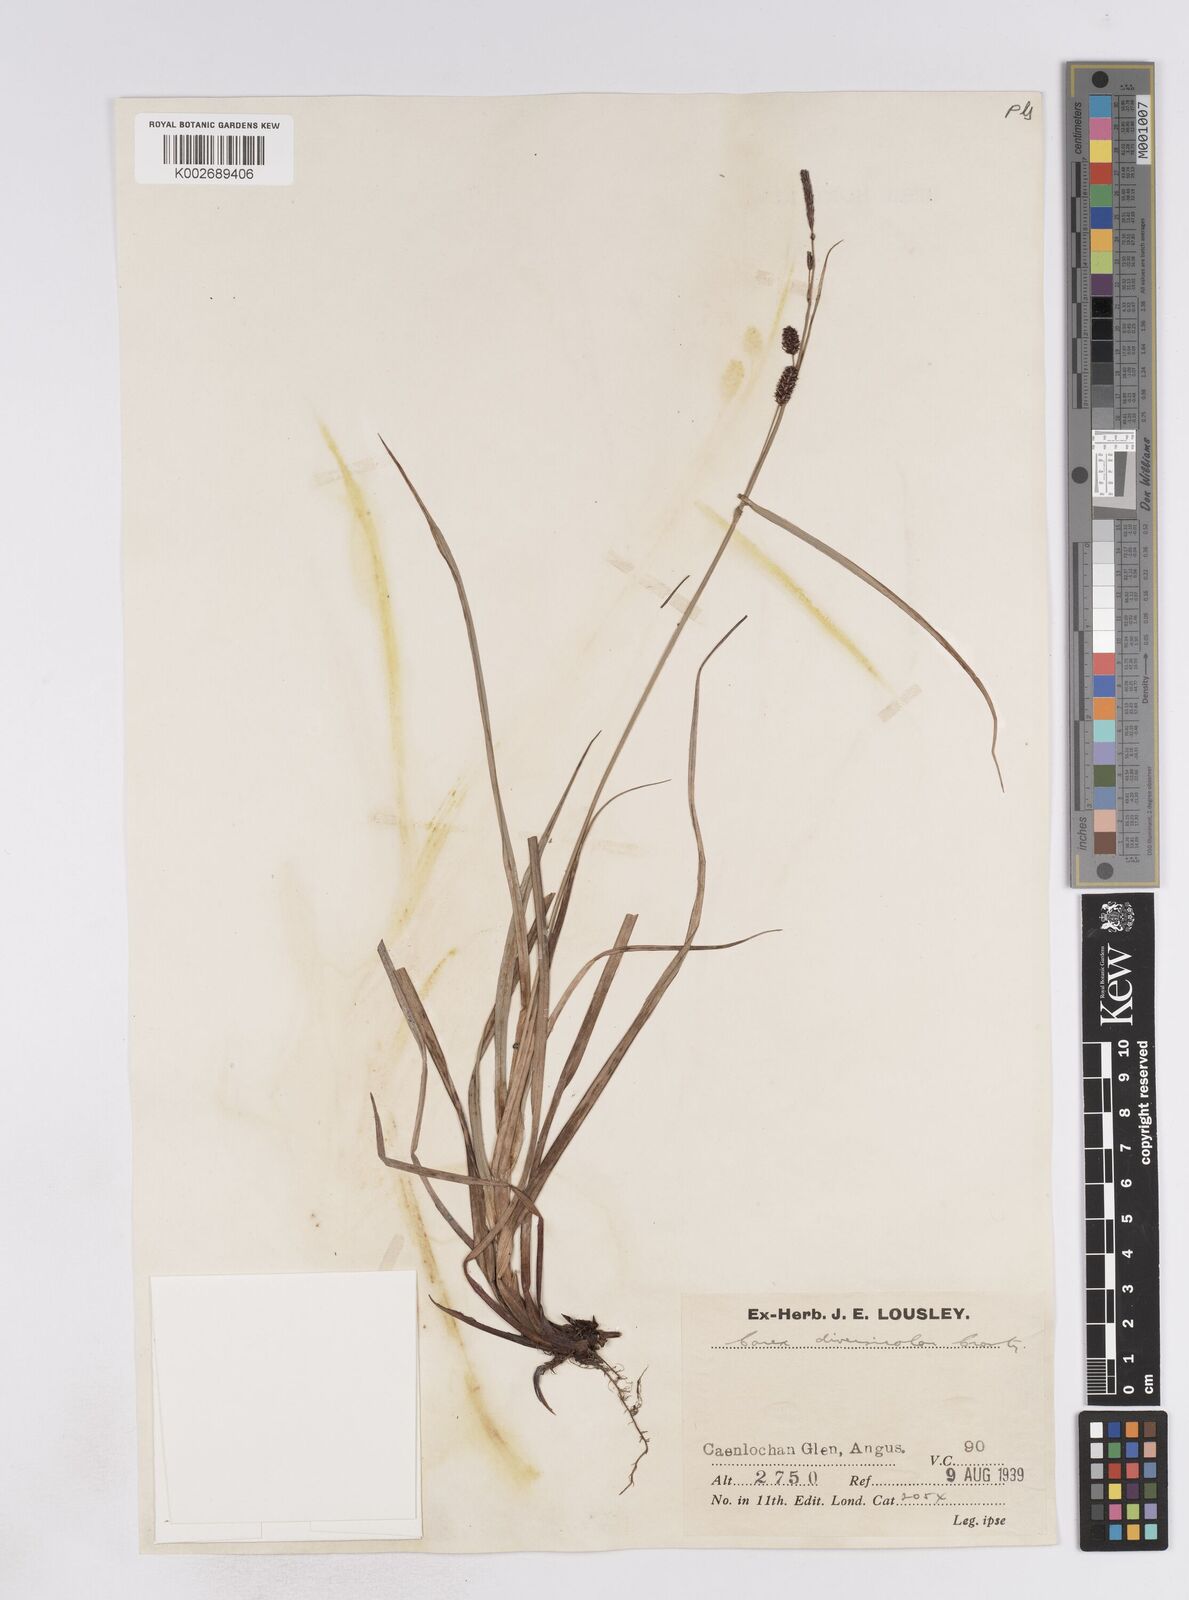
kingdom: Plantae
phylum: Tracheophyta
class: Liliopsida
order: Poales
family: Cyperaceae
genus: Carex
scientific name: Carex flacca
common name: Glaucous sedge
